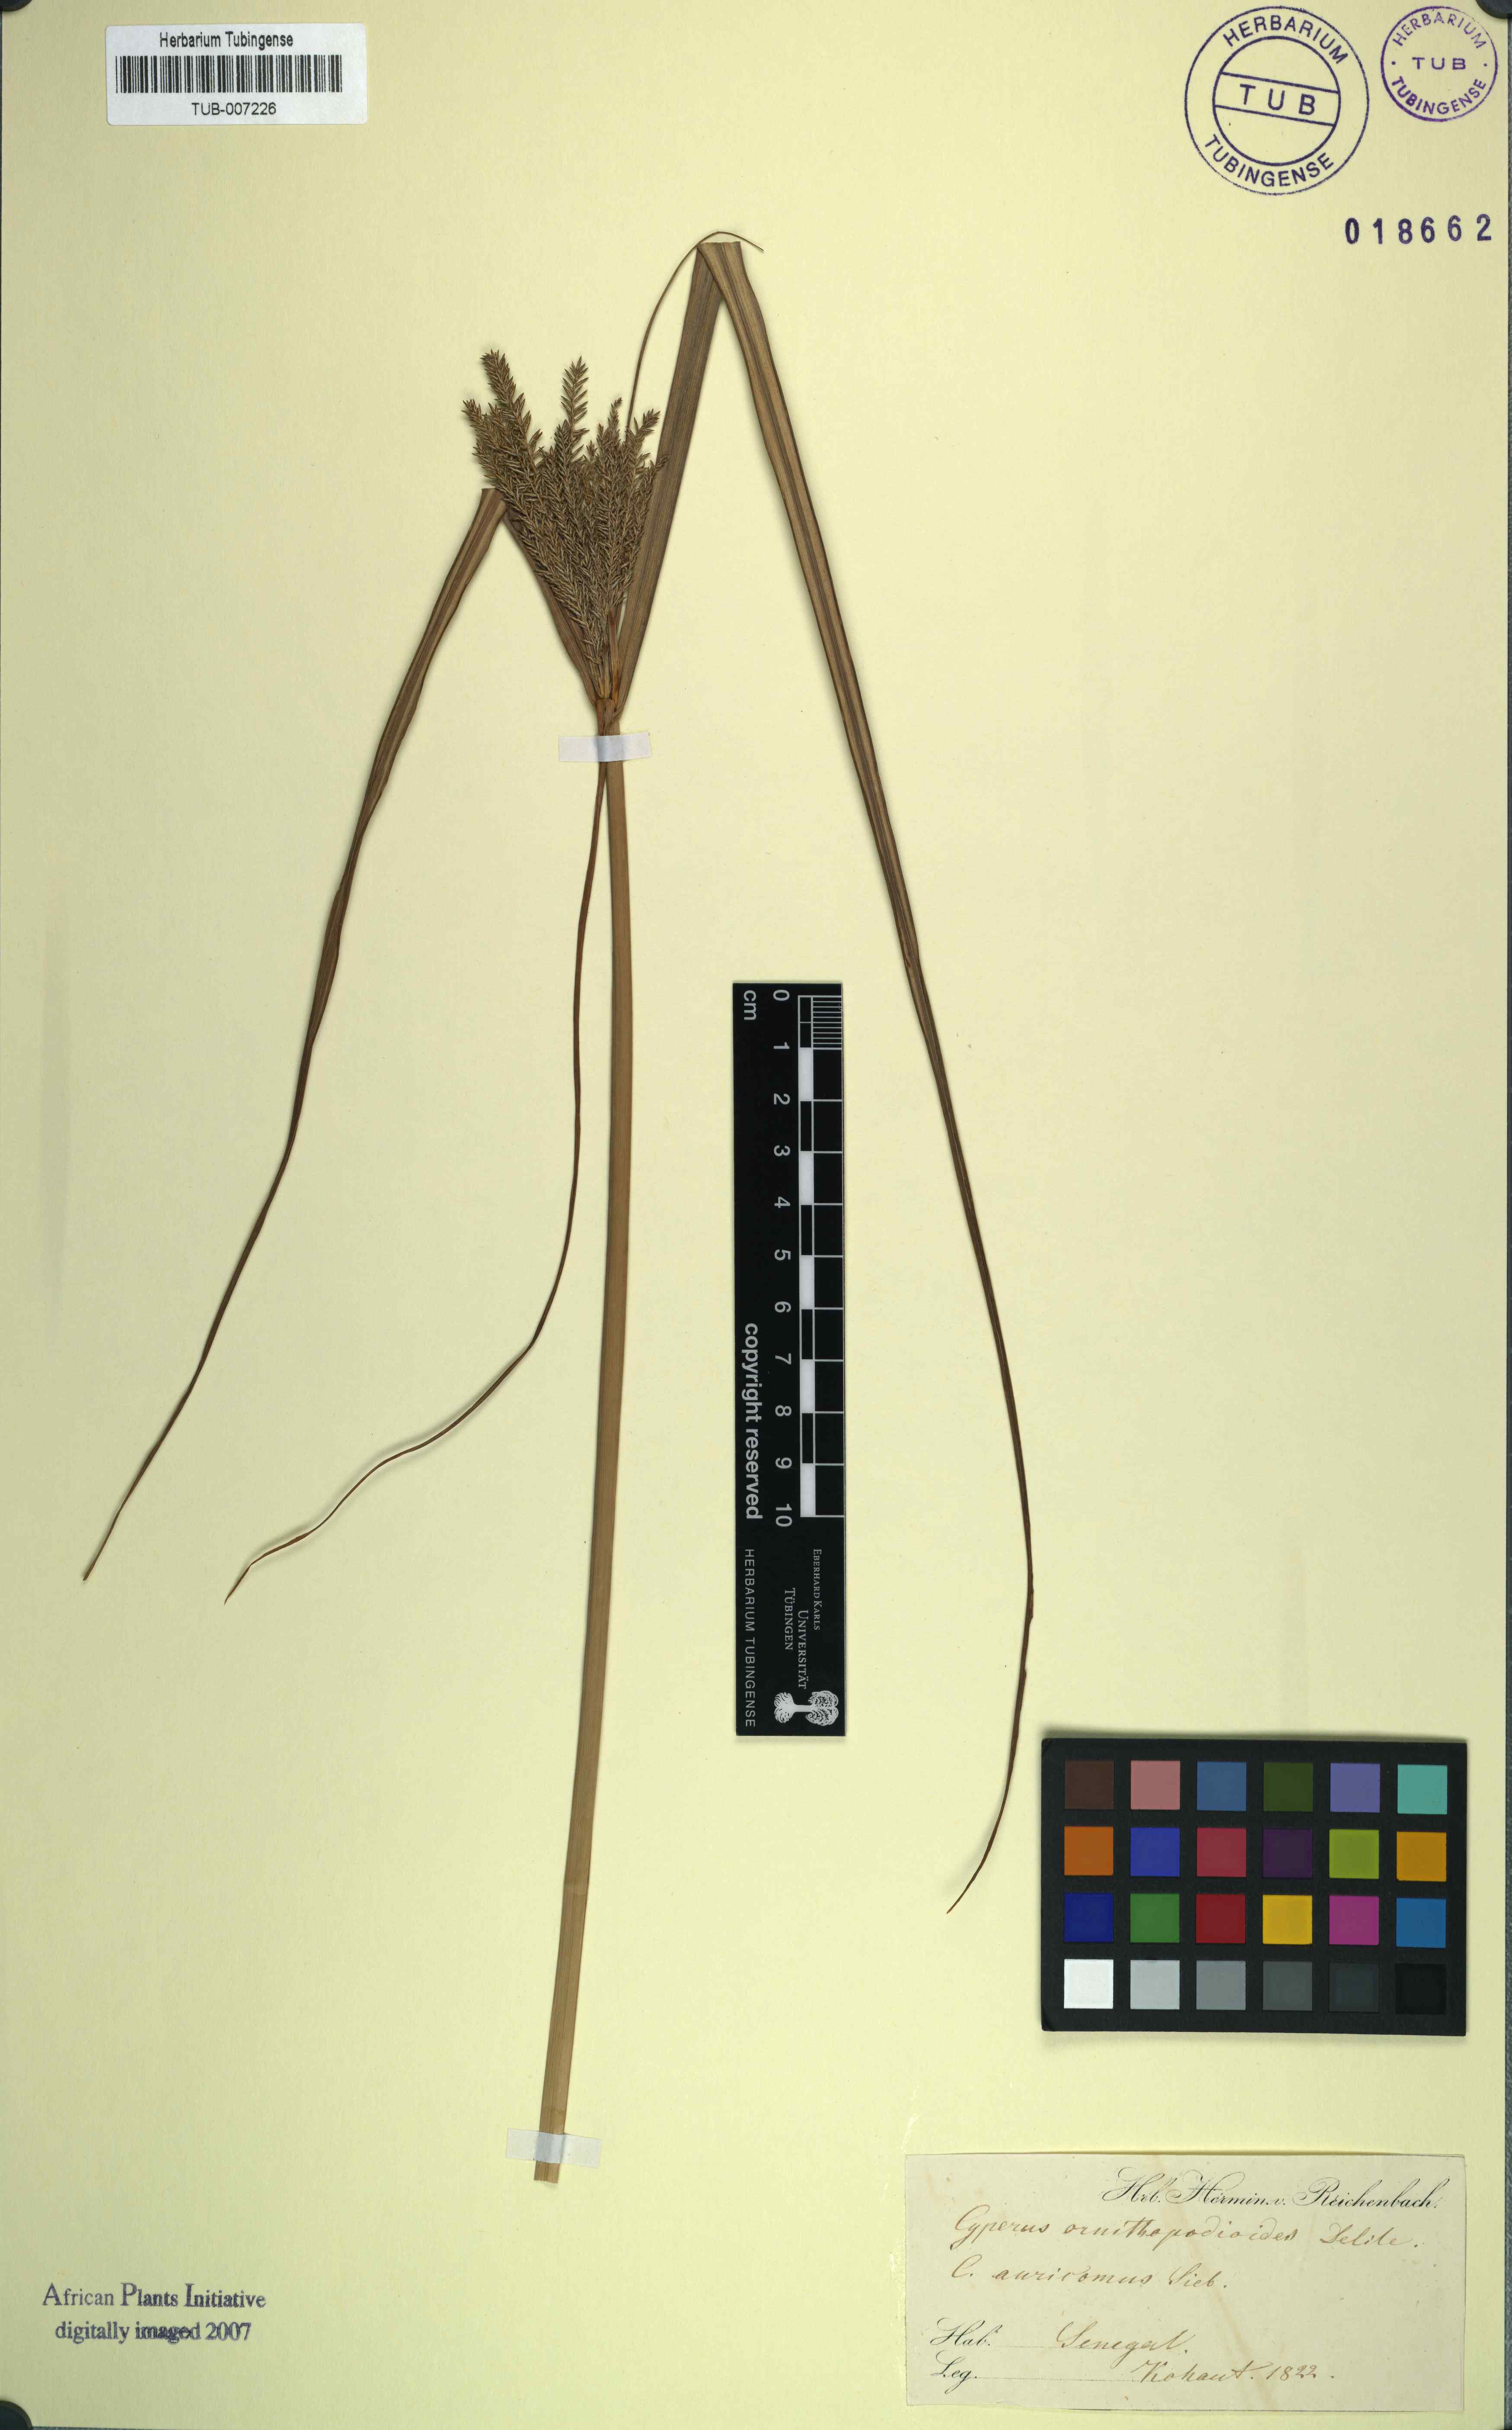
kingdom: Plantae
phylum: Tracheophyta
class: Liliopsida
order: Poales
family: Cyperaceae
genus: Cyperus
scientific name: Cyperus digitatus
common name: Finger flatsedge
